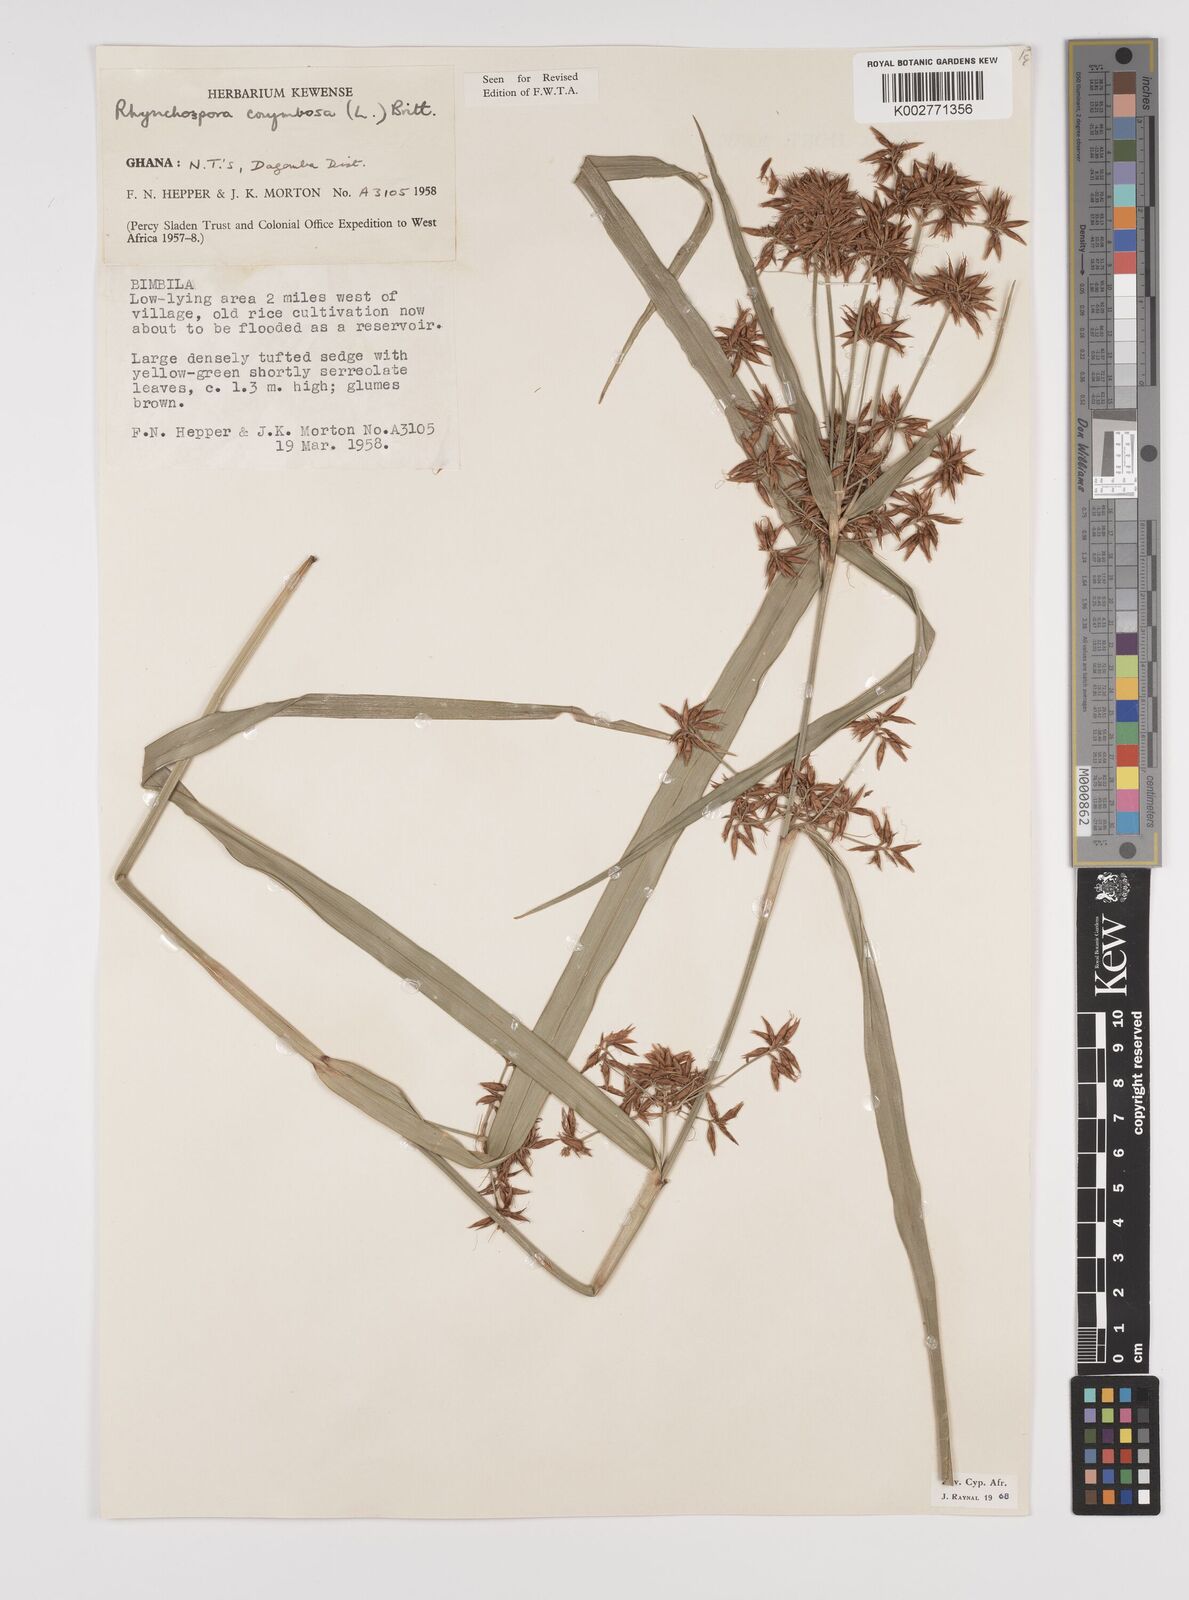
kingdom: Plantae
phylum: Tracheophyta
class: Liliopsida
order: Poales
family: Cyperaceae
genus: Rhynchospora
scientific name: Rhynchospora corymbosa
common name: Golden beak sedge
